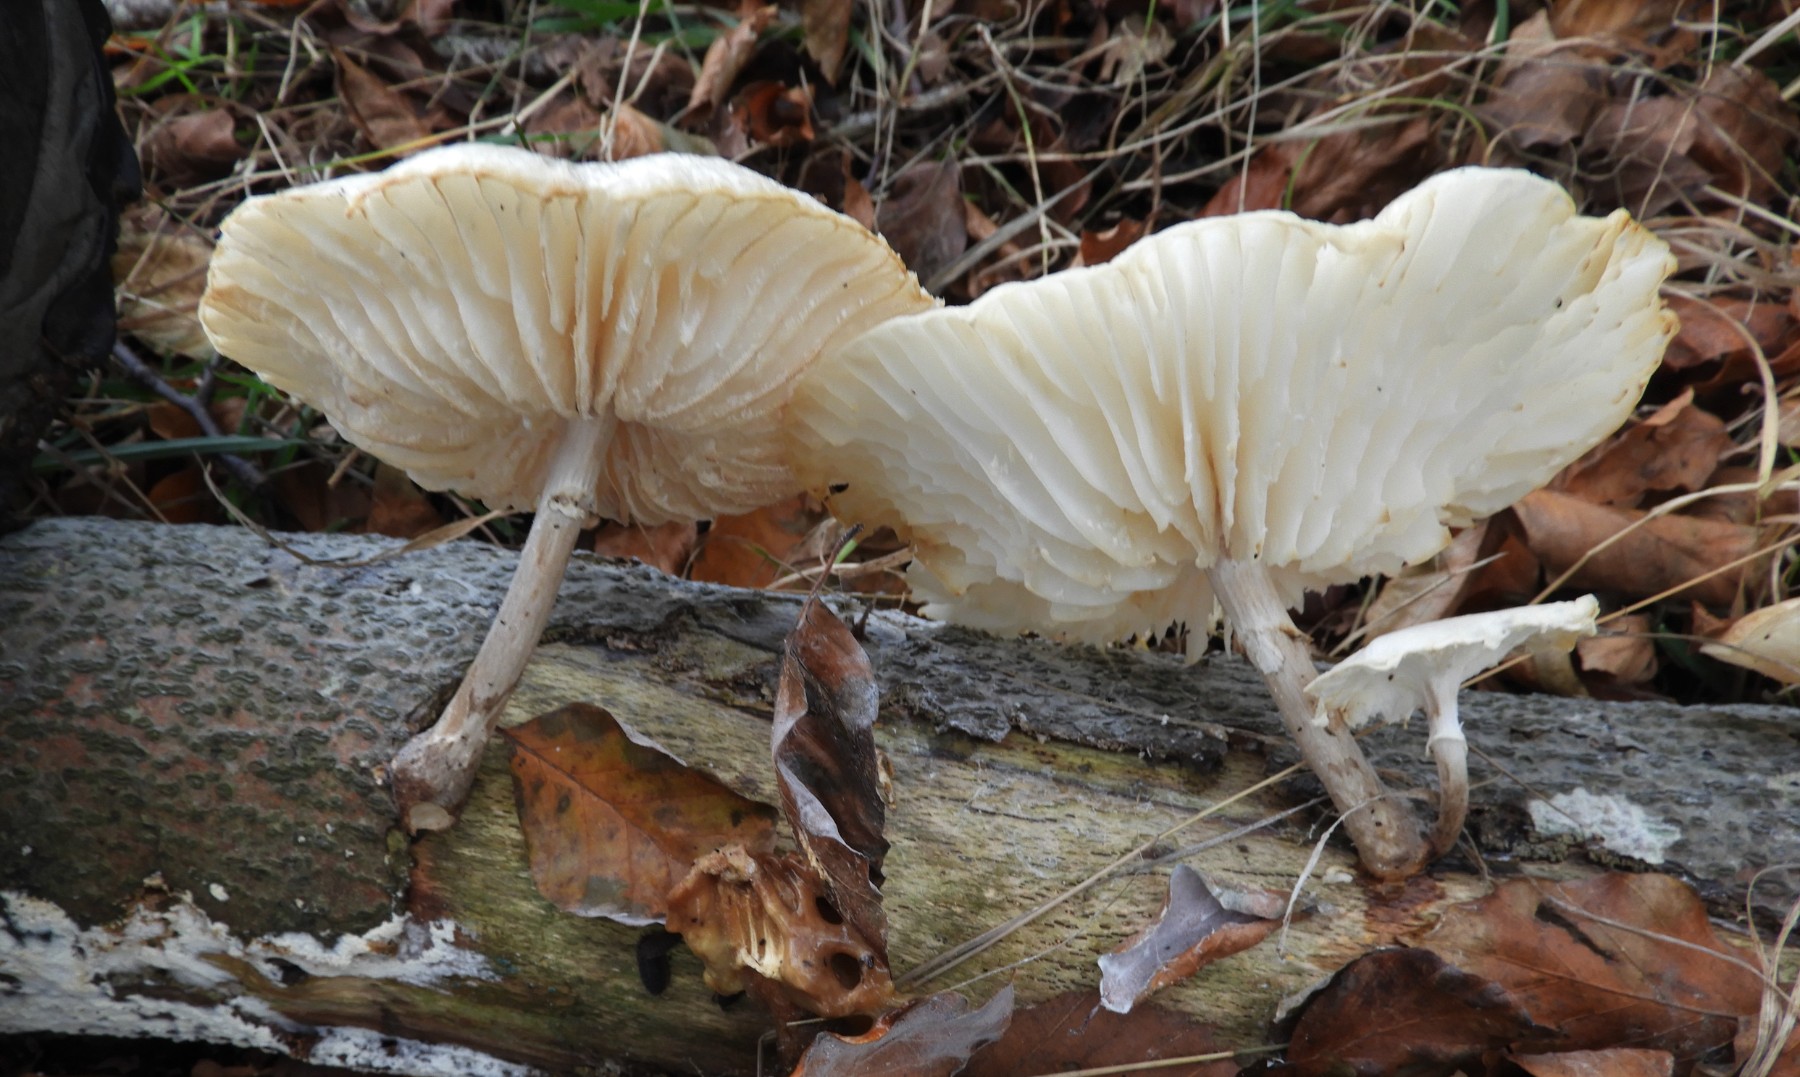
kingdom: Fungi
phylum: Basidiomycota
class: Agaricomycetes
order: Agaricales
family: Physalacriaceae
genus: Mucidula
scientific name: Mucidula mucida
